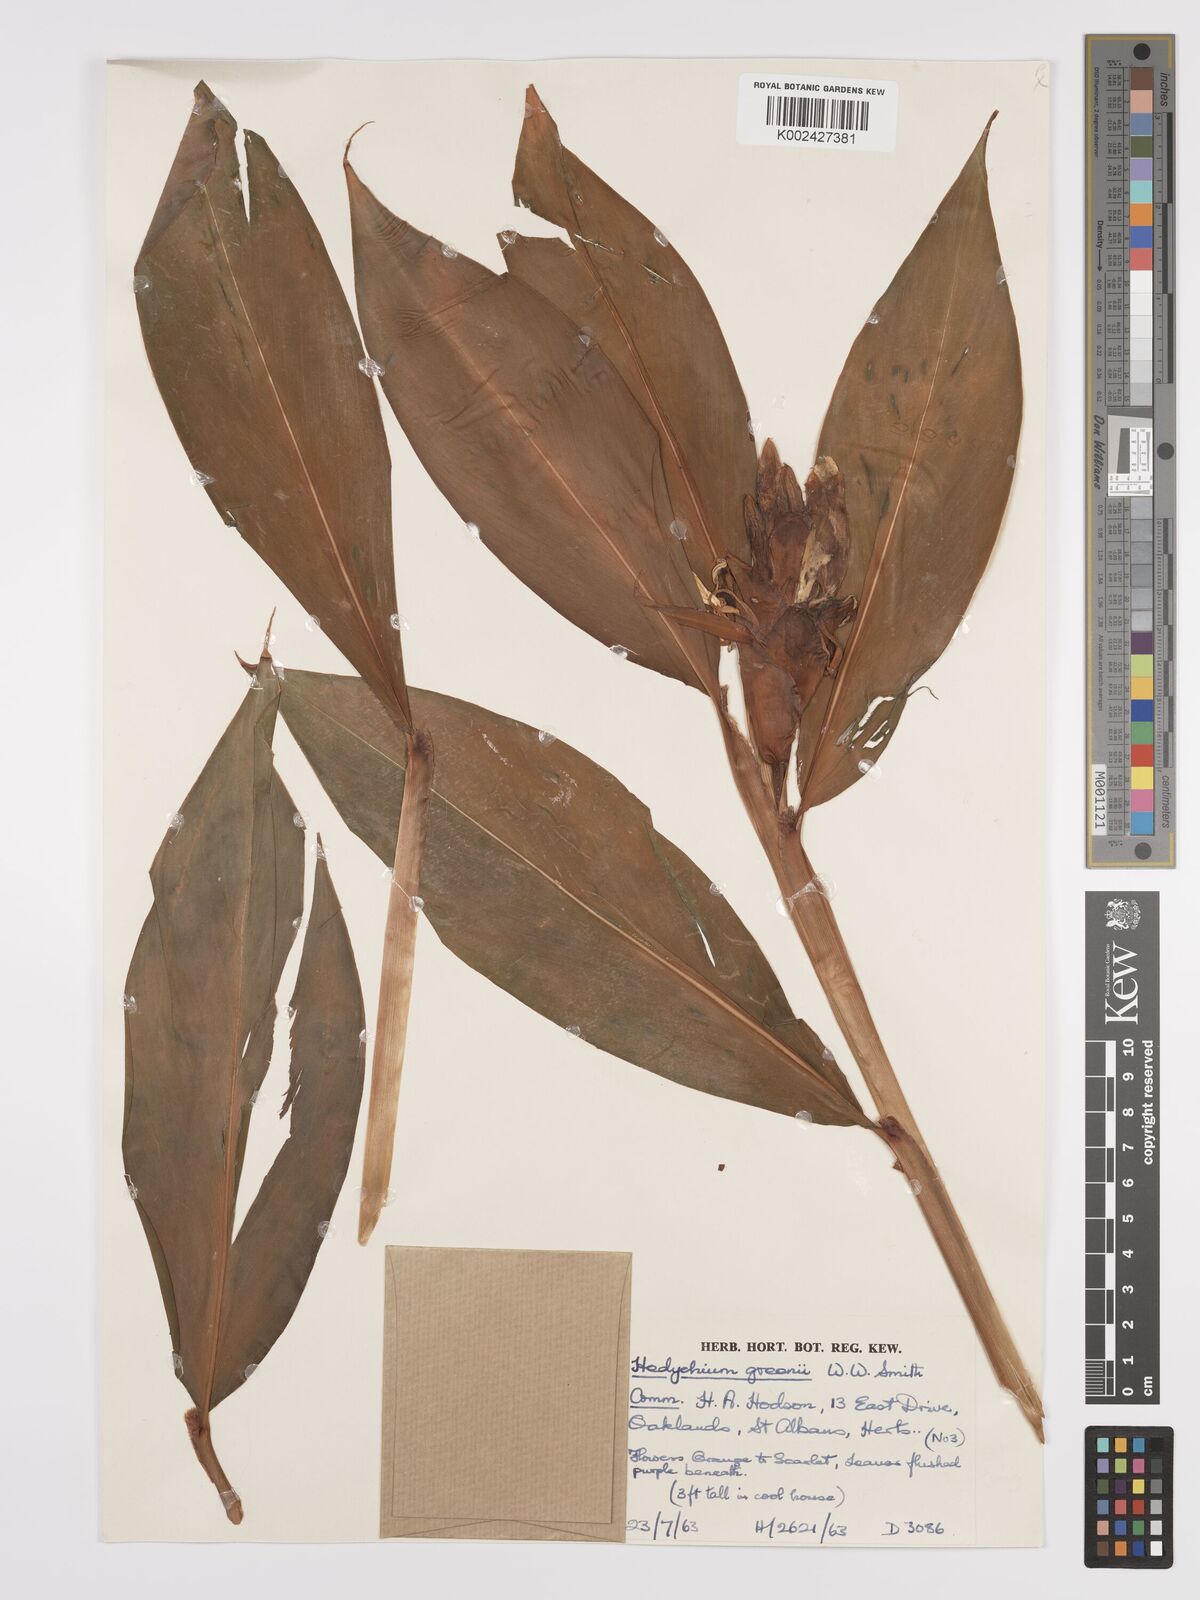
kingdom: Plantae
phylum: Tracheophyta
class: Liliopsida
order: Zingiberales
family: Zingiberaceae
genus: Hedychium
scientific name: Hedychium greenii
